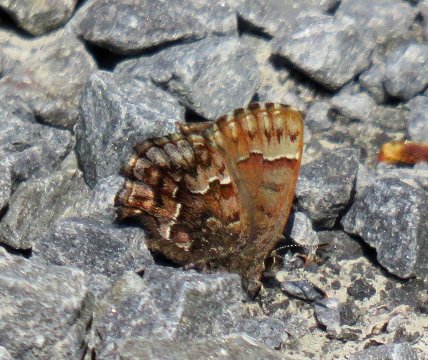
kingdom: Animalia
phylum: Arthropoda
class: Insecta
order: Lepidoptera
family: Lycaenidae
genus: Incisalia
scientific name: Incisalia niphon
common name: Eastern Pine Elfin
